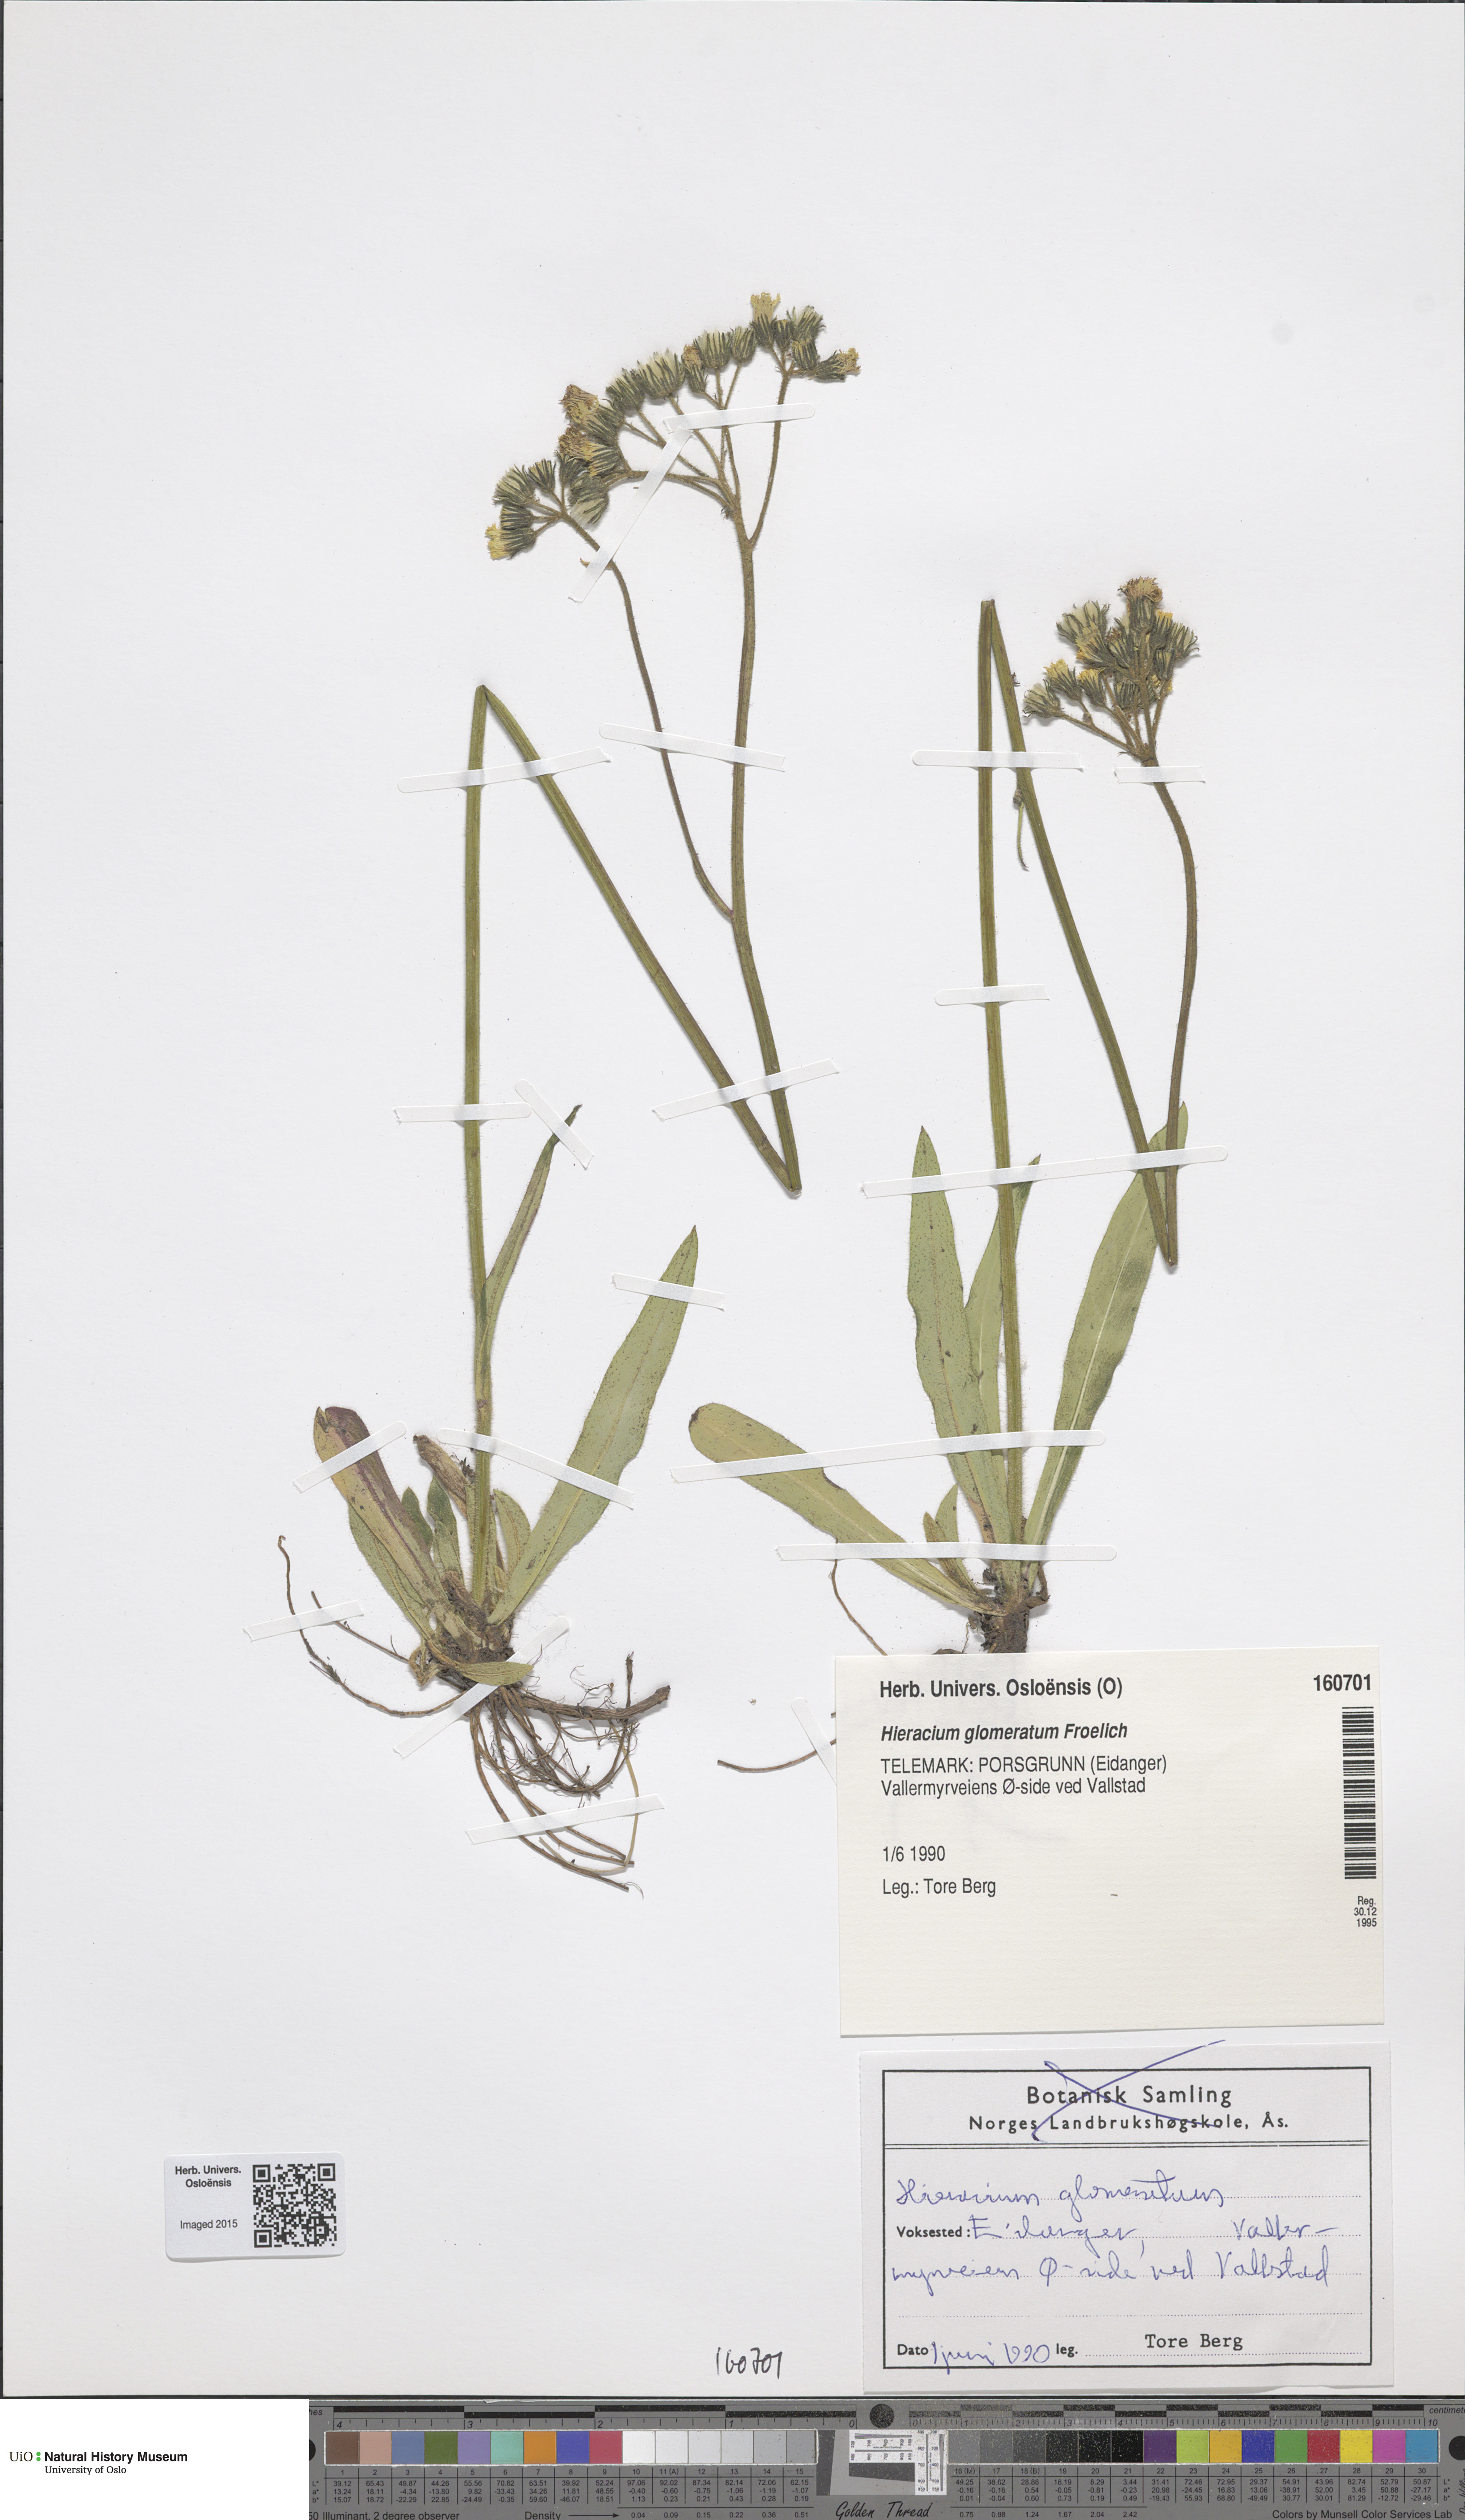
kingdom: Plantae
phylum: Tracheophyta
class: Magnoliopsida
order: Asterales
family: Asteraceae
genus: Pilosella
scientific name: Pilosella glomerata
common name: Queen devil hawkweed
